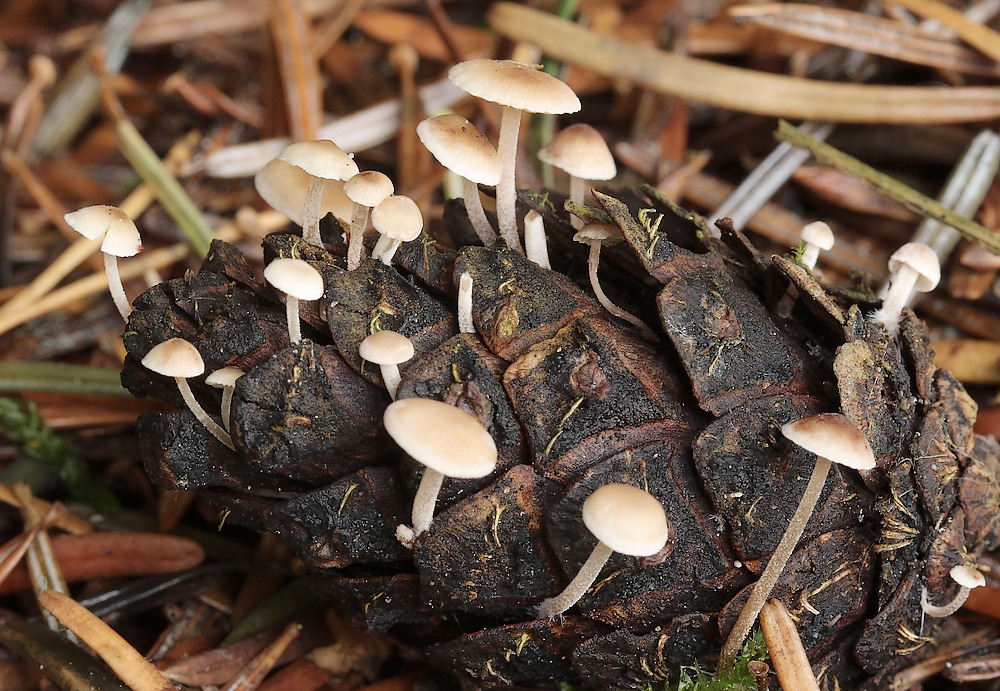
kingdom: Fungi
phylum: Basidiomycota
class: Agaricomycetes
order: Agaricales
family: Marasmiaceae
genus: Baeospora
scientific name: Baeospora myosura
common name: koglebruskhat
